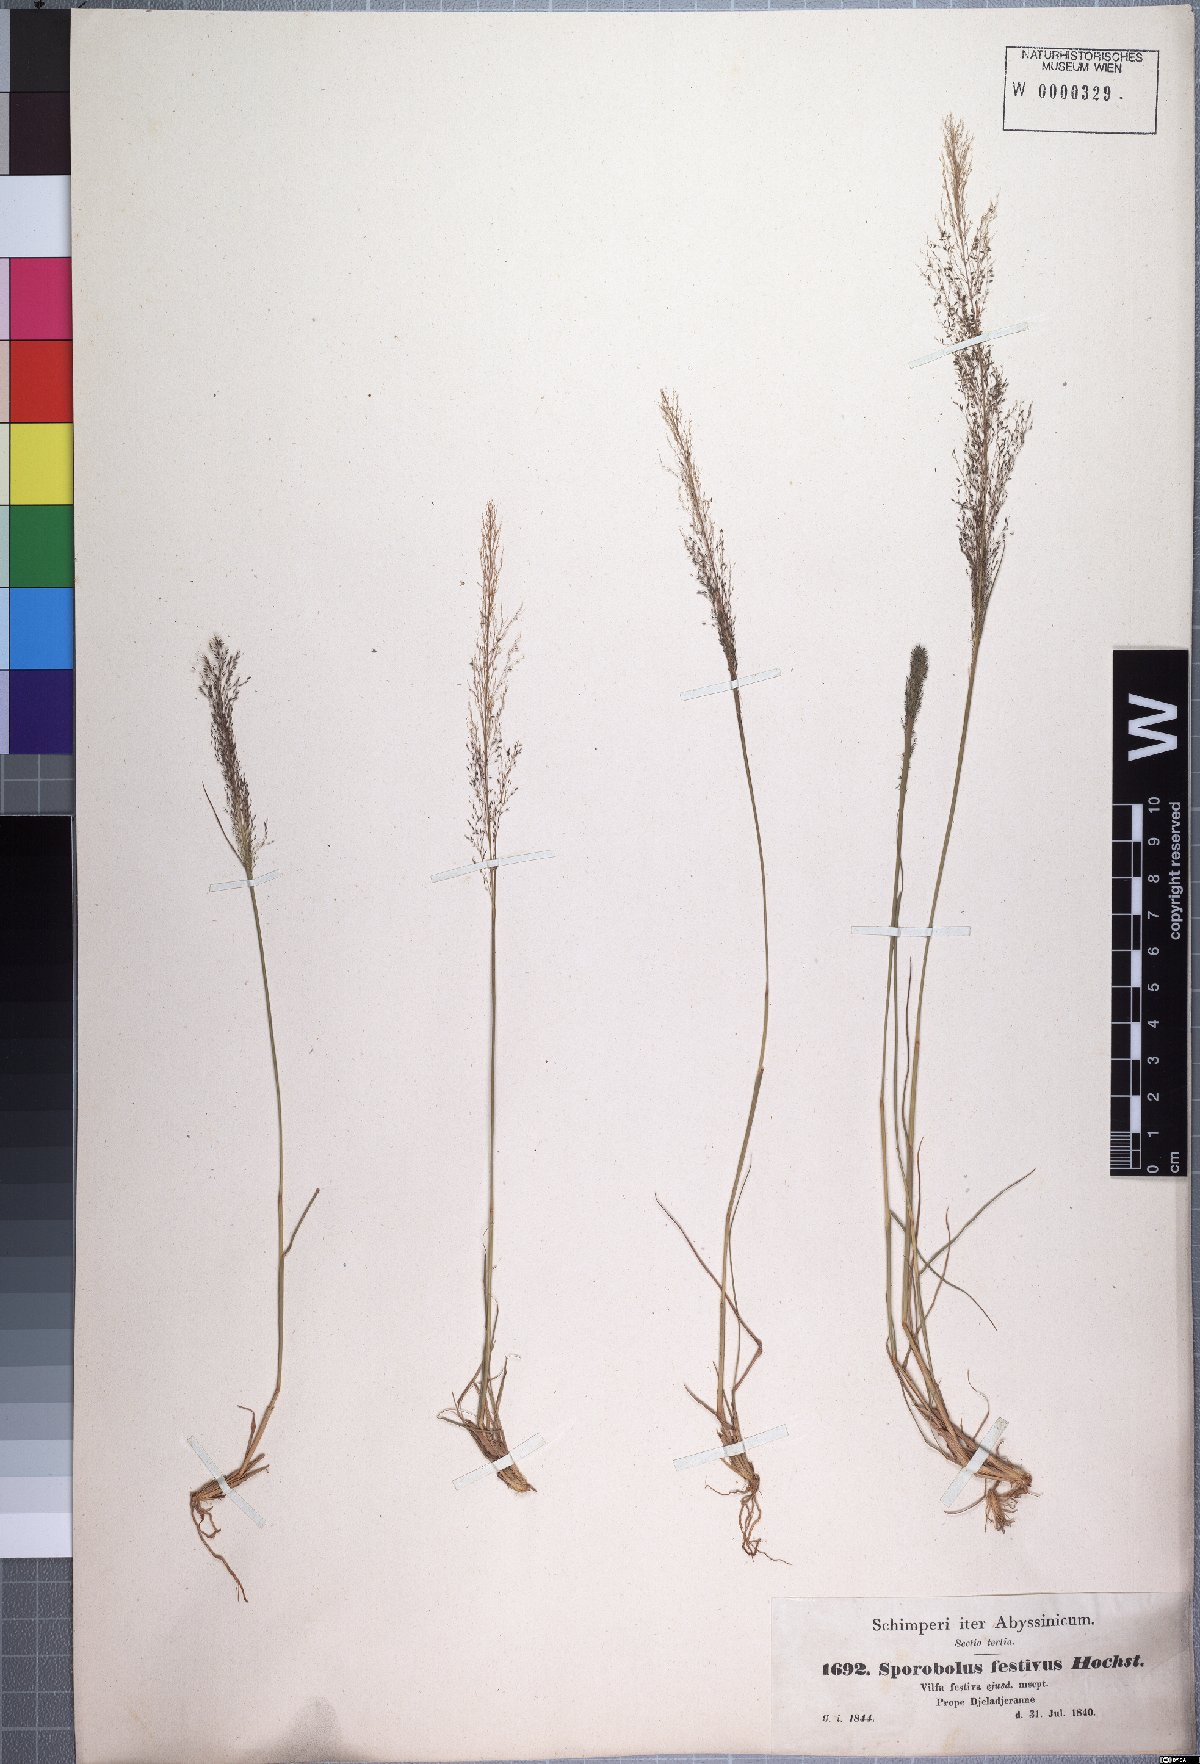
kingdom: Plantae
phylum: Tracheophyta
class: Liliopsida
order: Poales
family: Poaceae
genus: Sporobolus
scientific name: Sporobolus festivus
